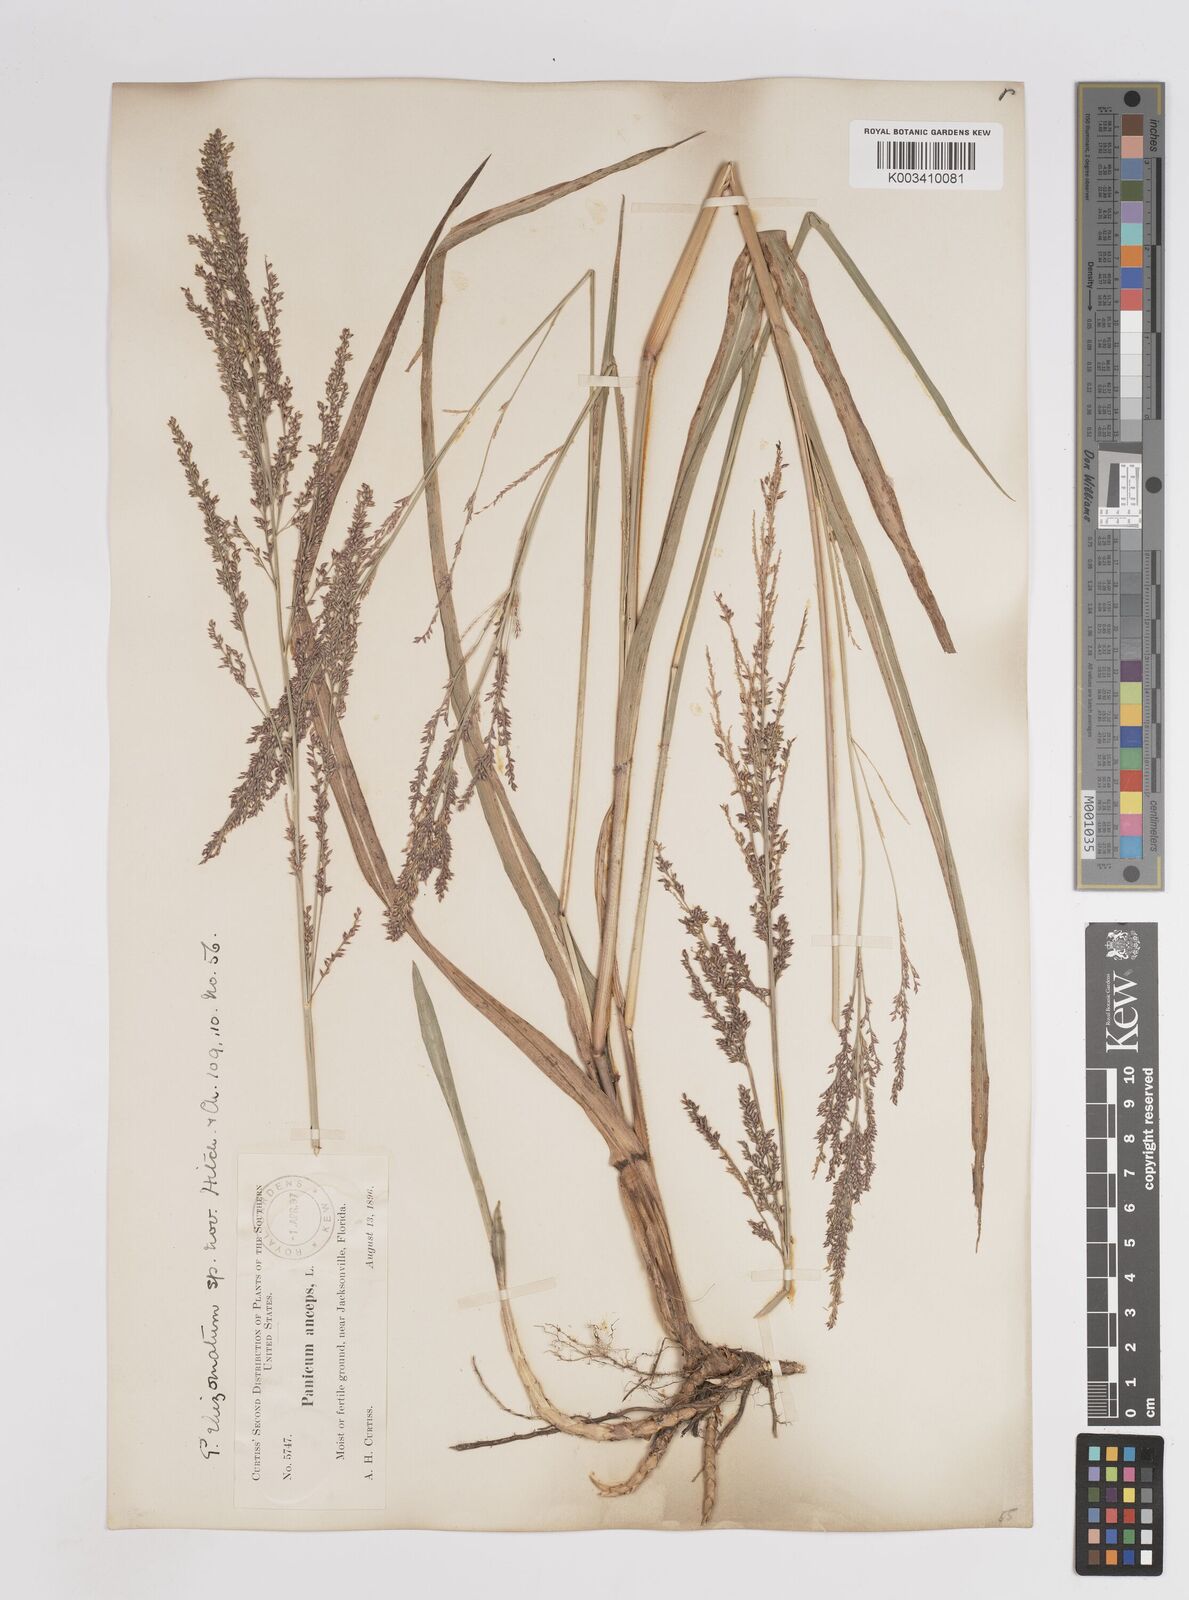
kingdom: Plantae
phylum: Tracheophyta
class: Liliopsida
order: Poales
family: Poaceae
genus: Coleataenia
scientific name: Coleataenia anceps
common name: Beaked panic grass
